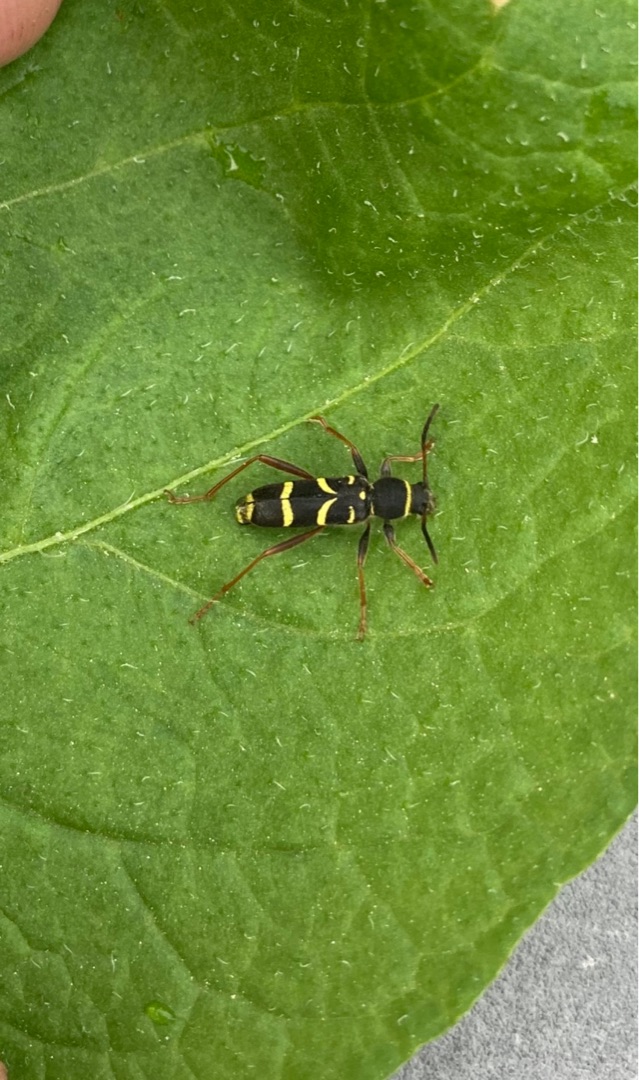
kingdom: Animalia
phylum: Arthropoda
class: Insecta
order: Coleoptera
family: Cerambycidae
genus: Clytus
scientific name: Clytus arietis
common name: Lille hvepsebuk
